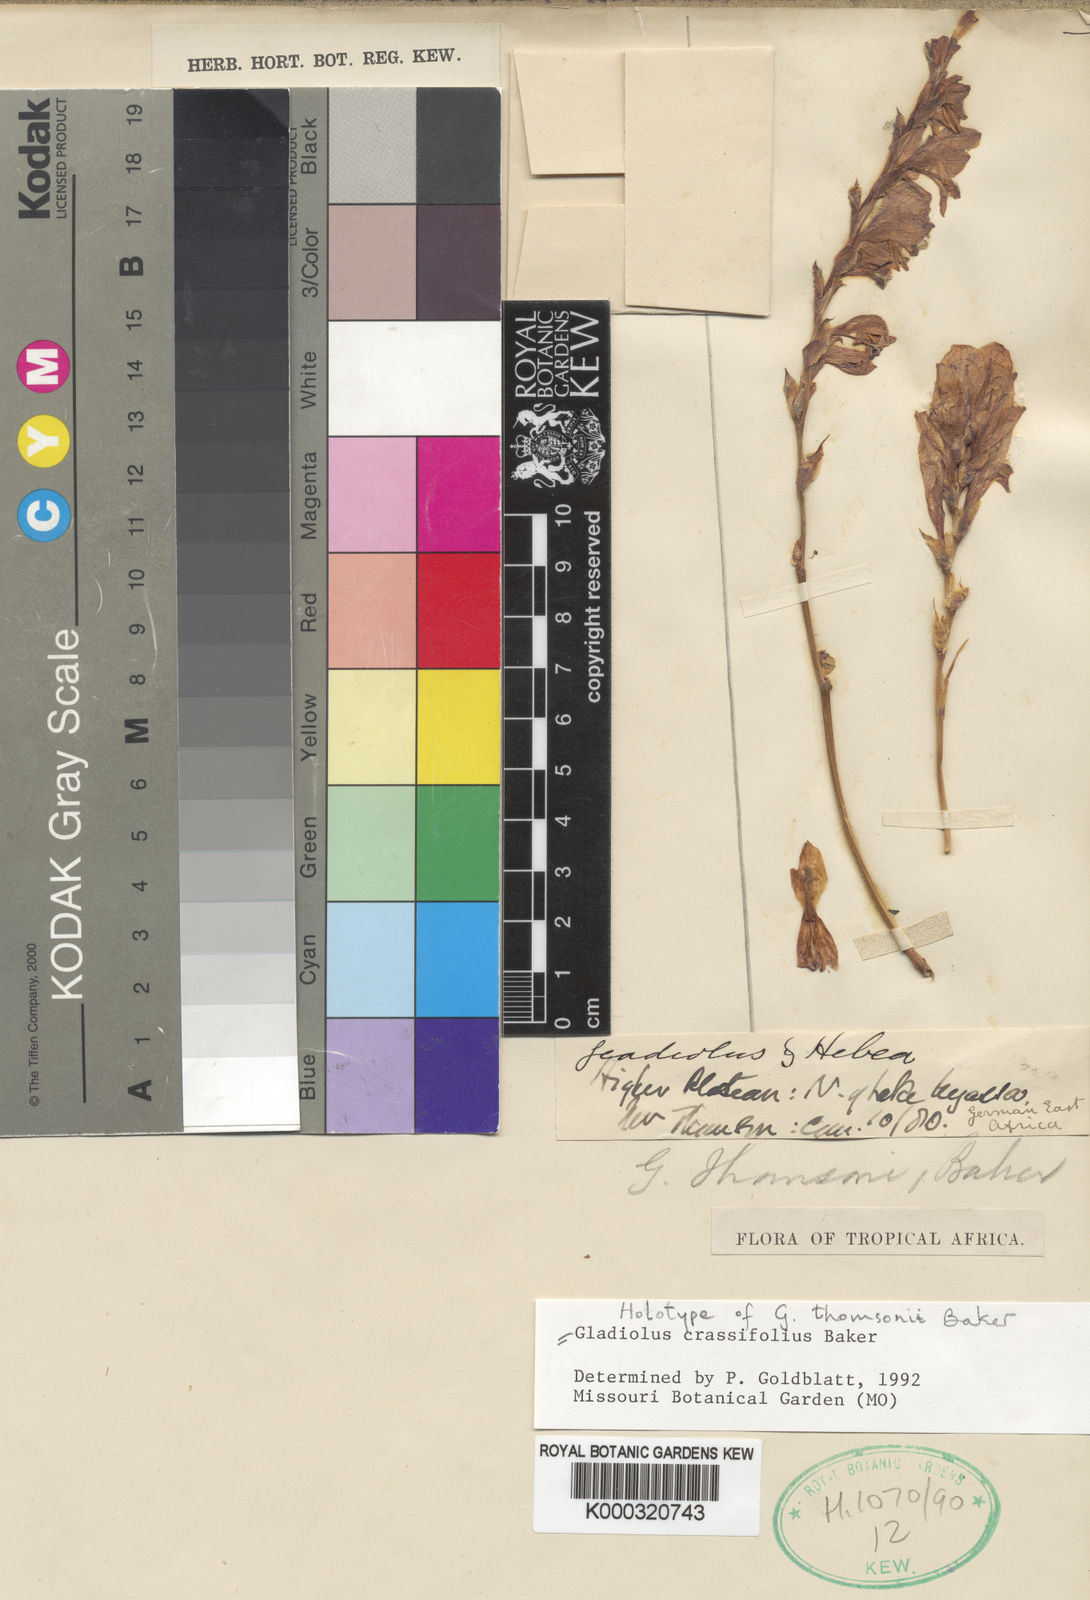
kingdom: Plantae
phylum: Tracheophyta
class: Liliopsida
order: Asparagales
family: Iridaceae
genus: Gladiolus
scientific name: Gladiolus crassifolius
